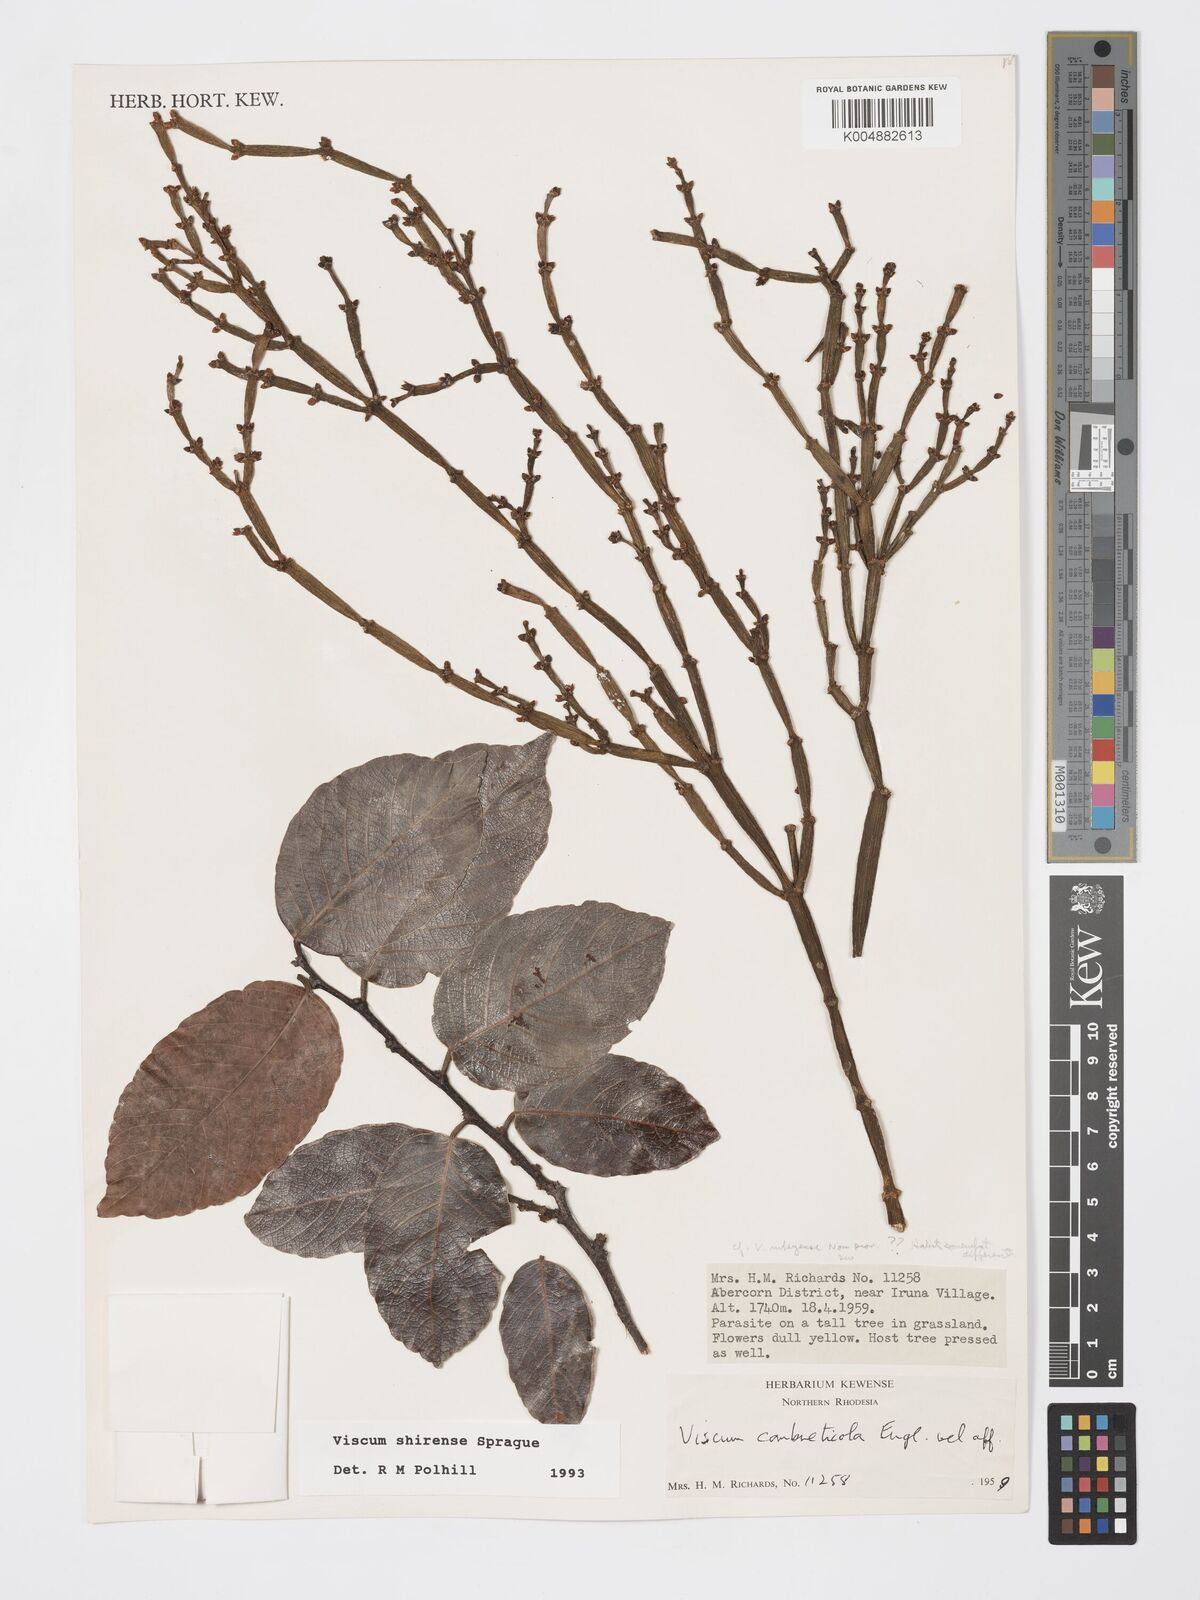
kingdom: Plantae
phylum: Tracheophyta
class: Magnoliopsida
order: Santalales
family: Viscaceae
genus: Viscum
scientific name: Viscum junodii
